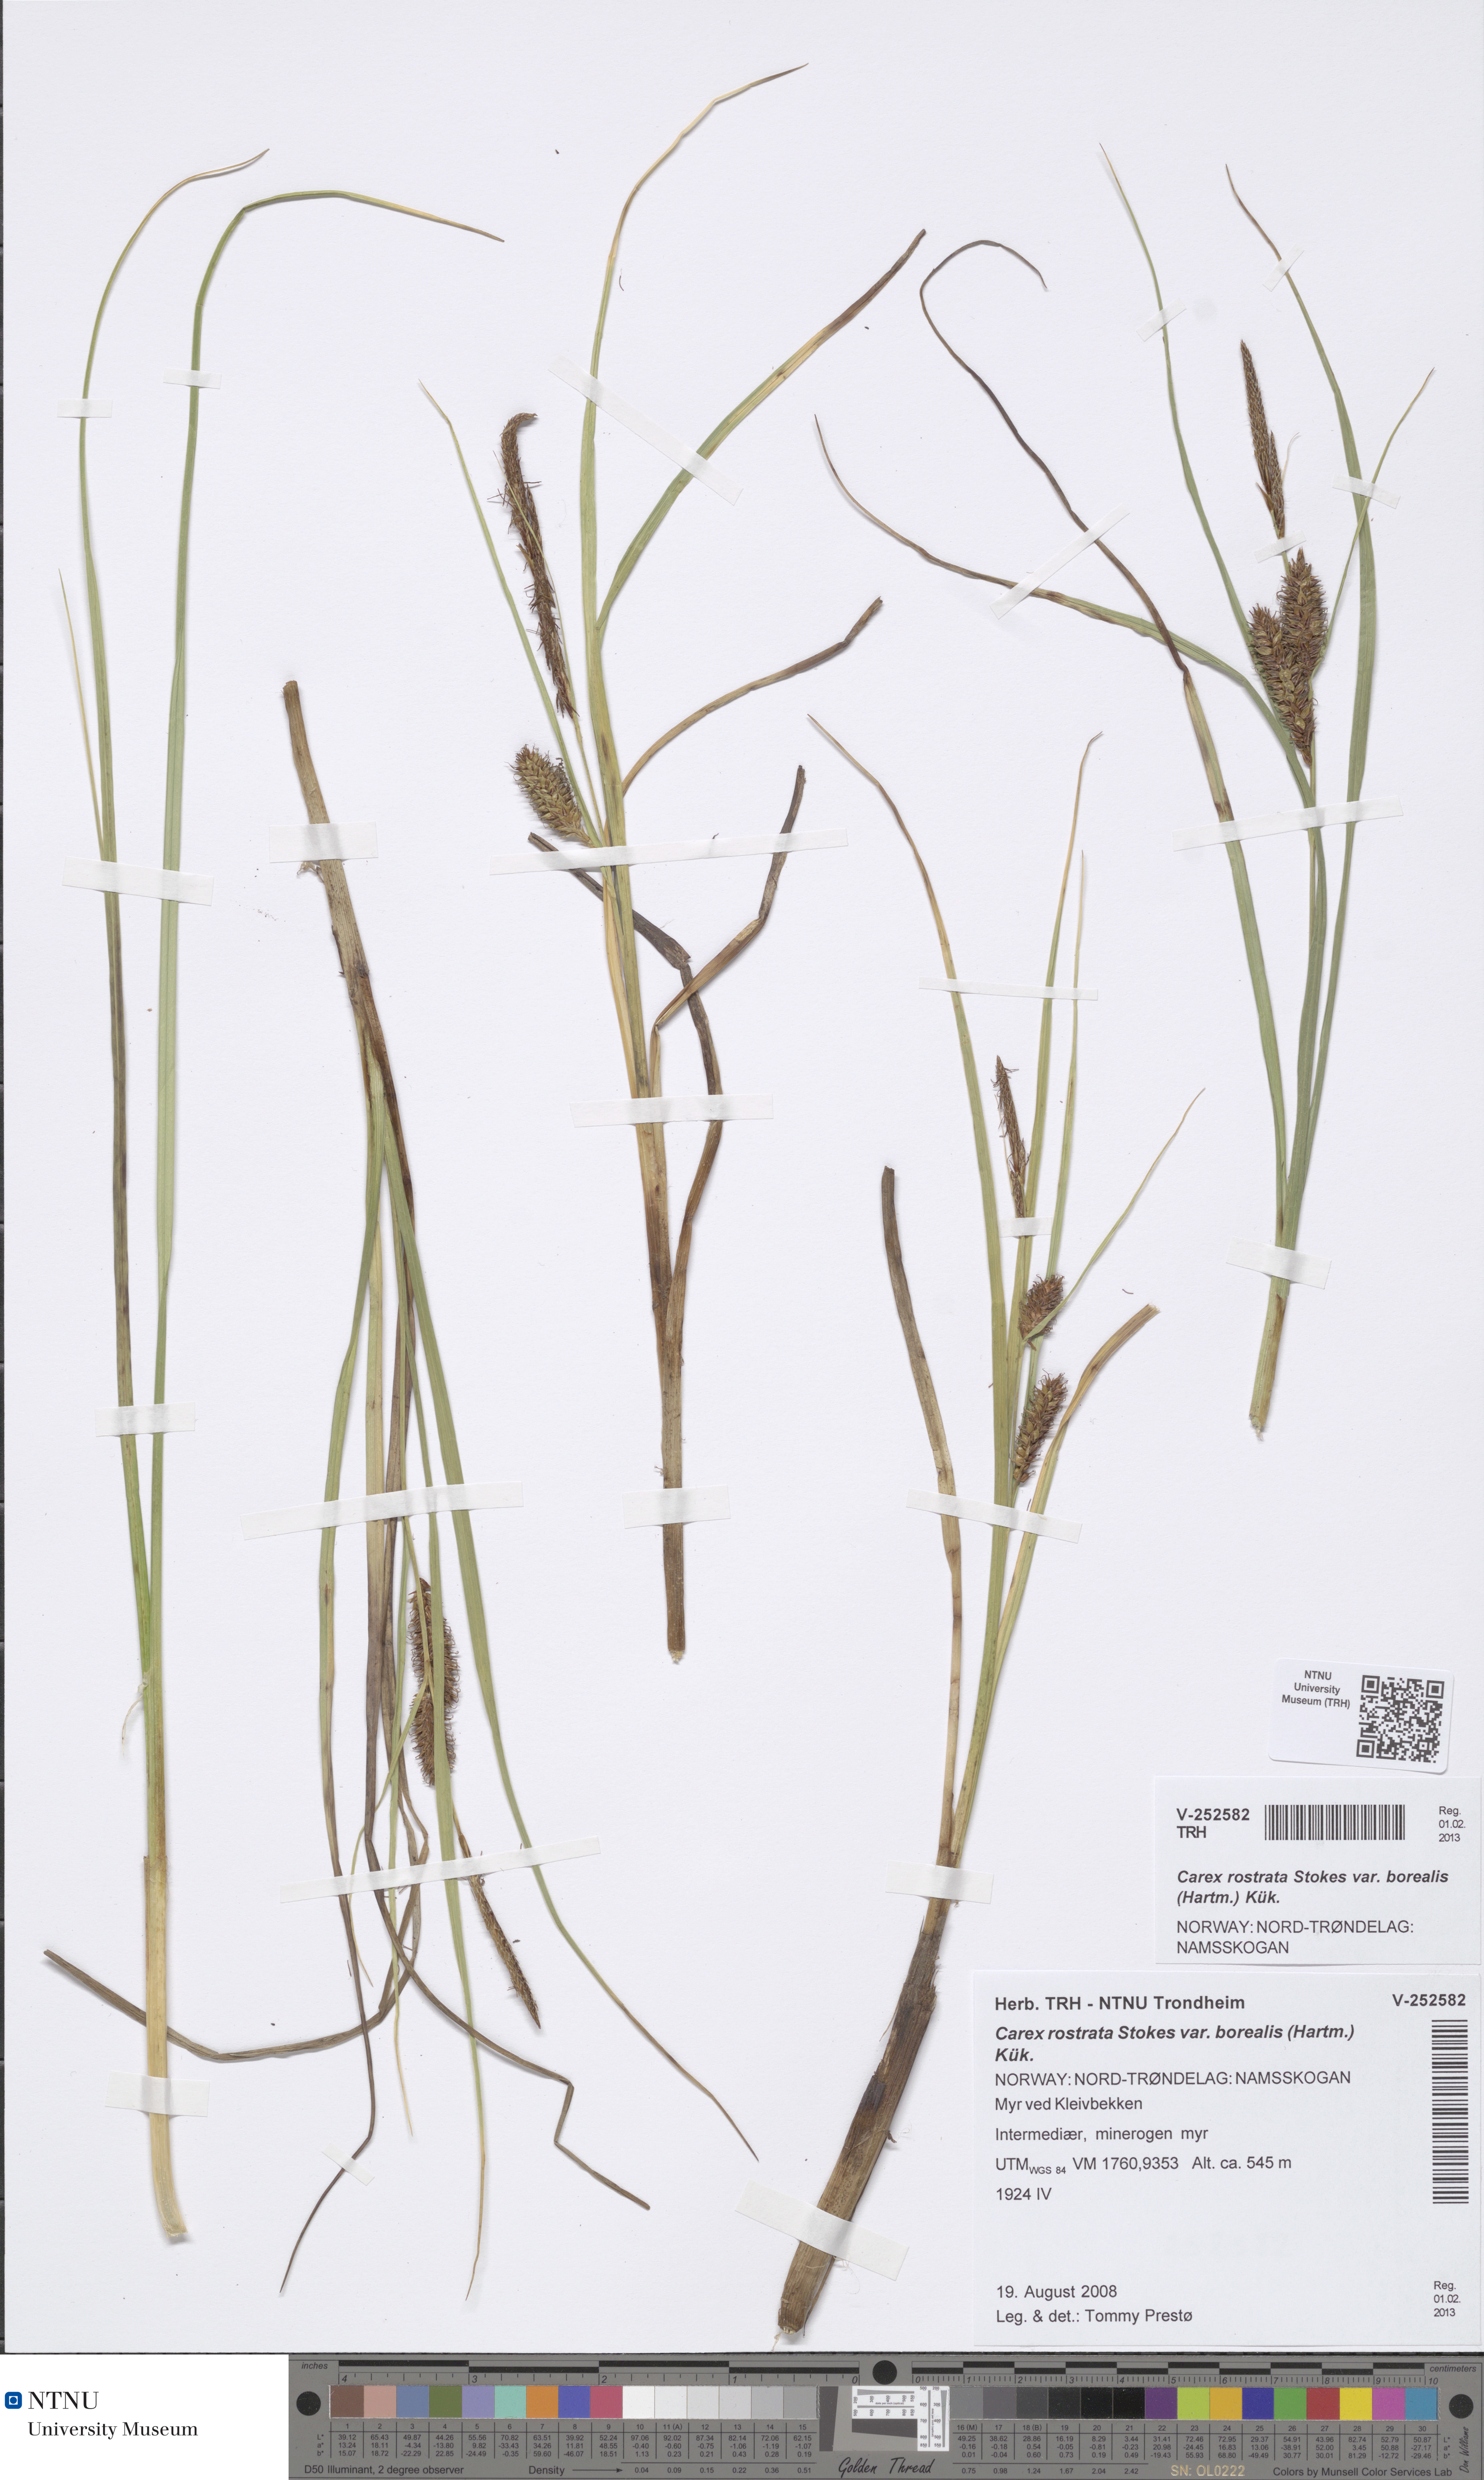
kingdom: Plantae
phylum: Tracheophyta
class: Liliopsida
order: Poales
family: Cyperaceae
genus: Carex
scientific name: Carex rostrata
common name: Bottle sedge
